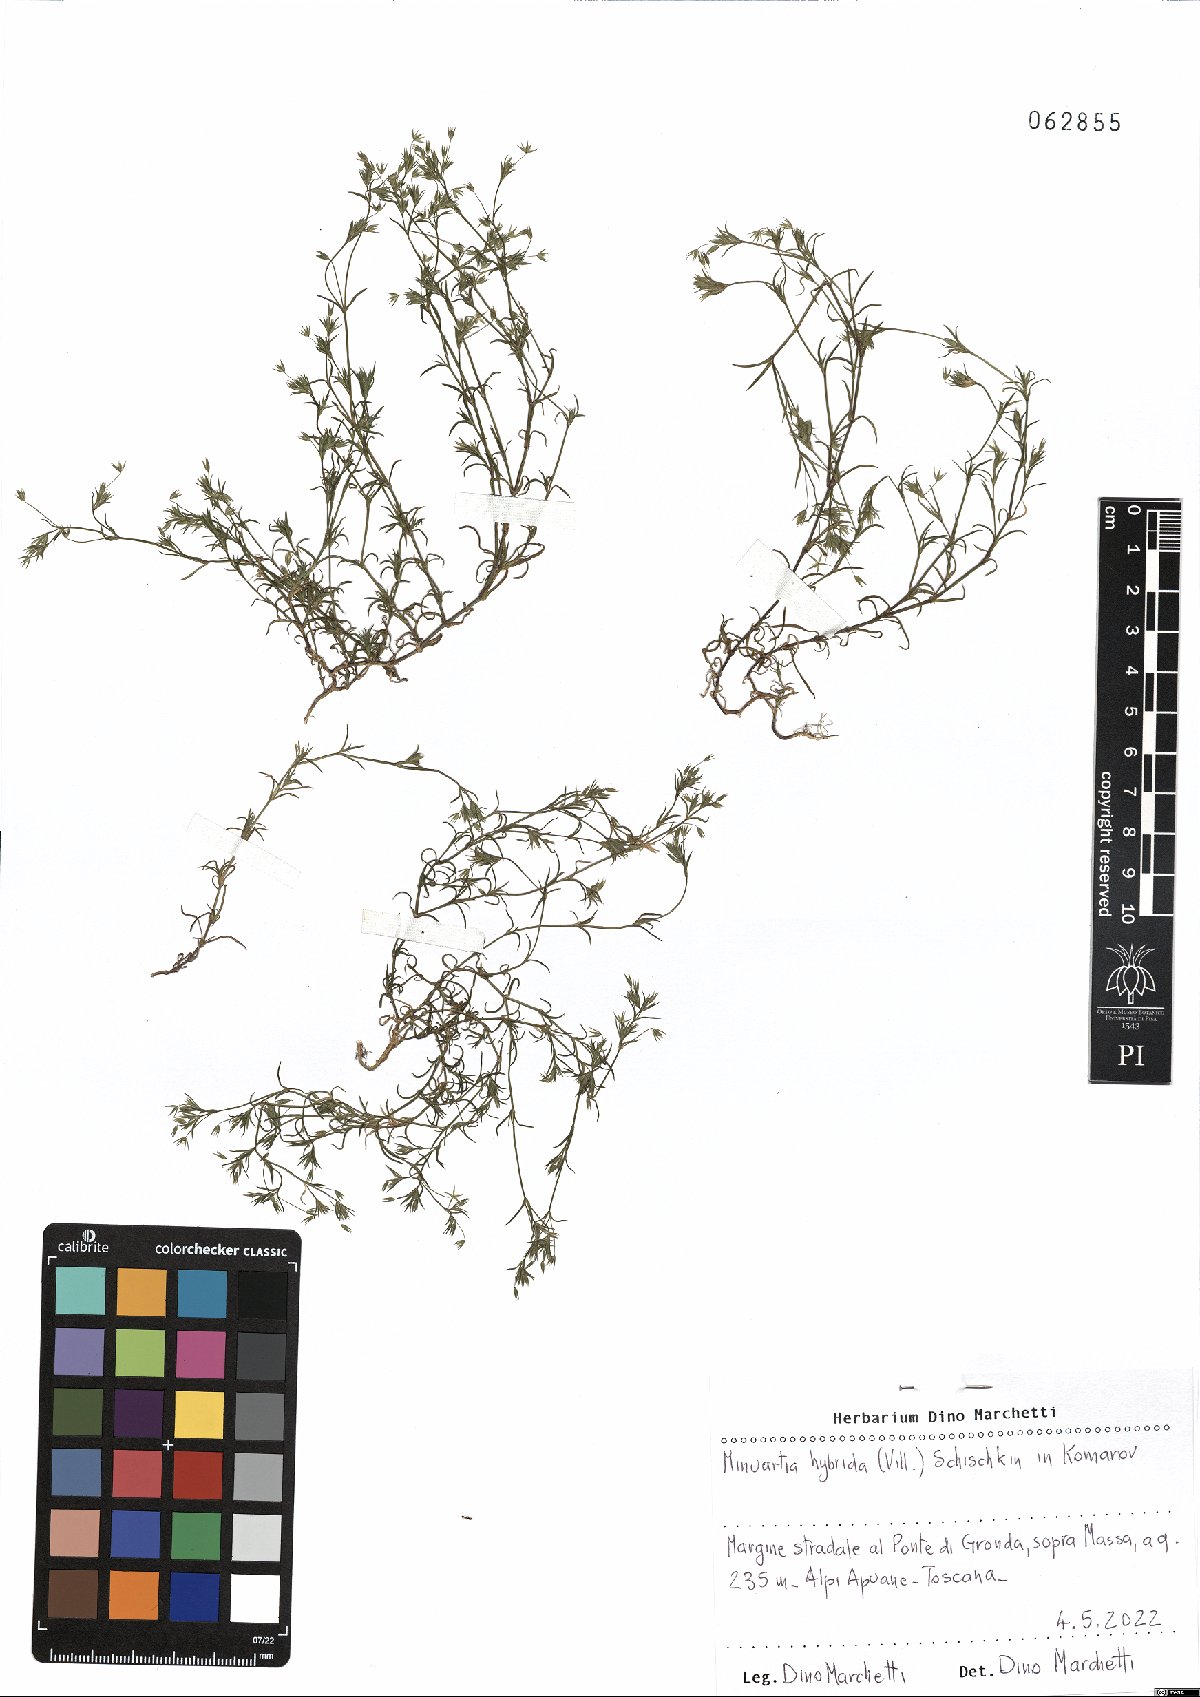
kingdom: Plantae
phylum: Tracheophyta
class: Magnoliopsida
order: Caryophyllales
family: Caryophyllaceae
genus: Sabulina
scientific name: Sabulina tenuifolia
